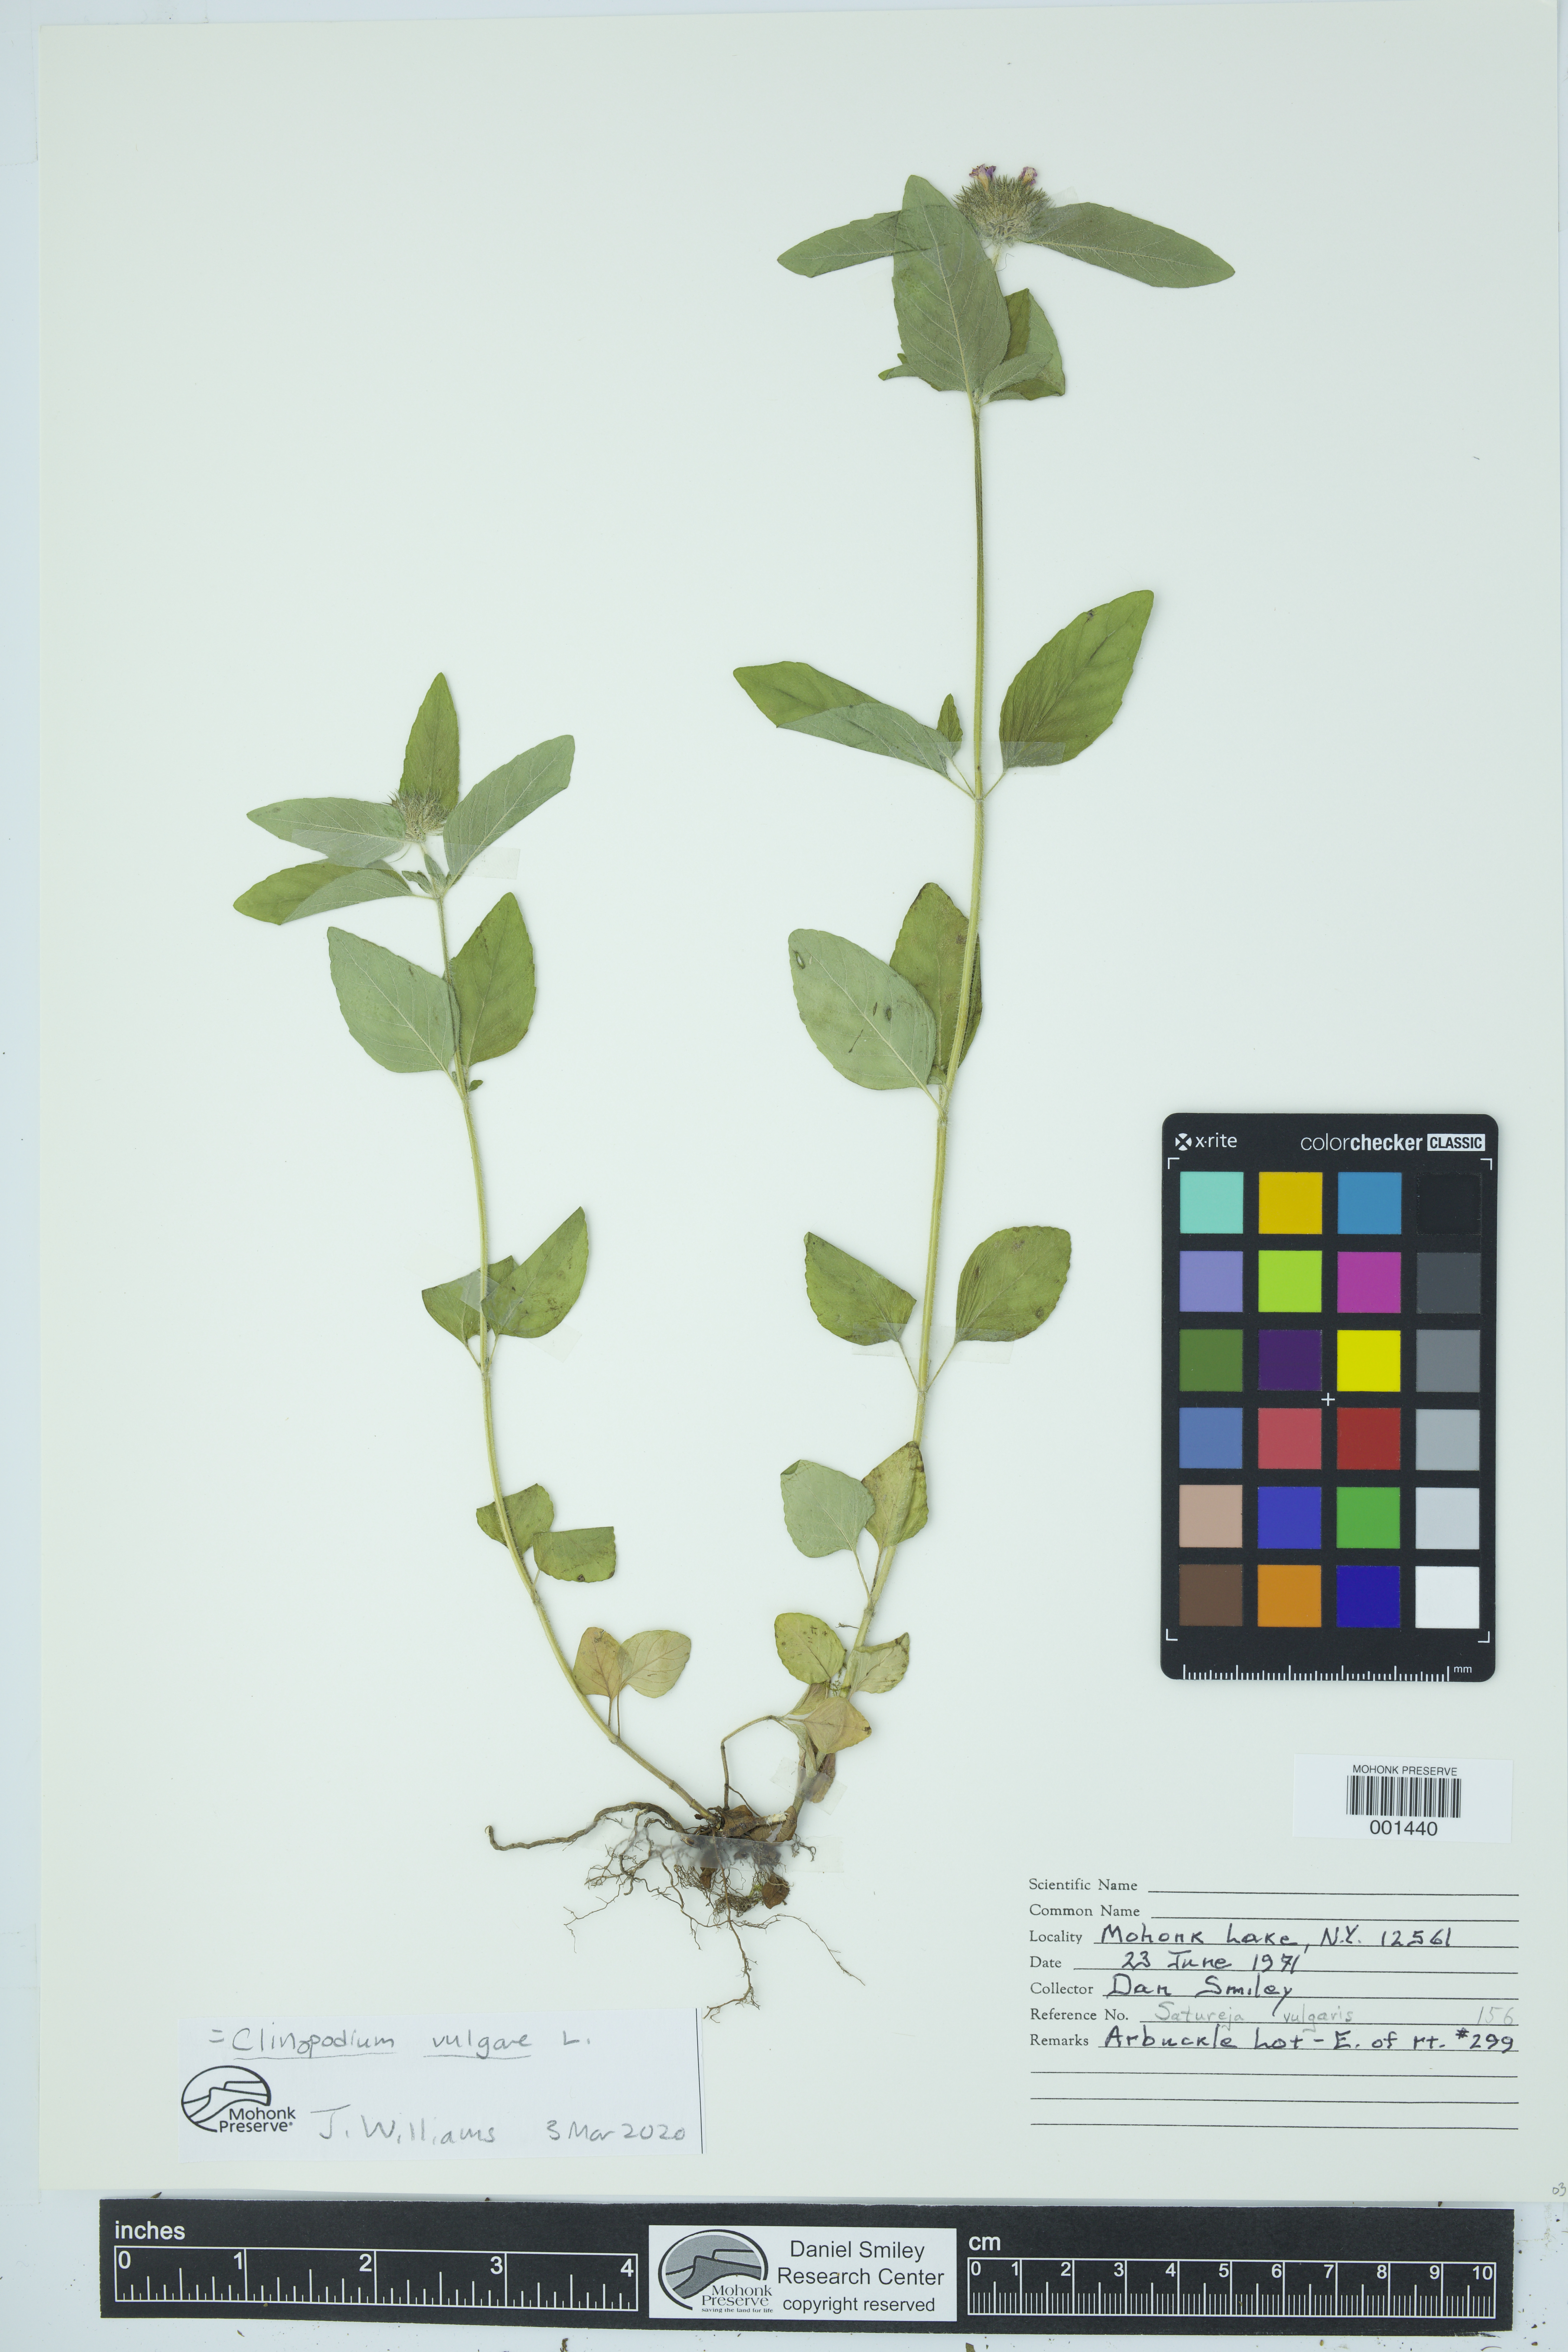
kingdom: Plantae
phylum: Tracheophyta
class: Magnoliopsida
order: Lamiales
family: Lamiaceae
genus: Clinopodium
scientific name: Clinopodium vulgare
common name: Wild basil
